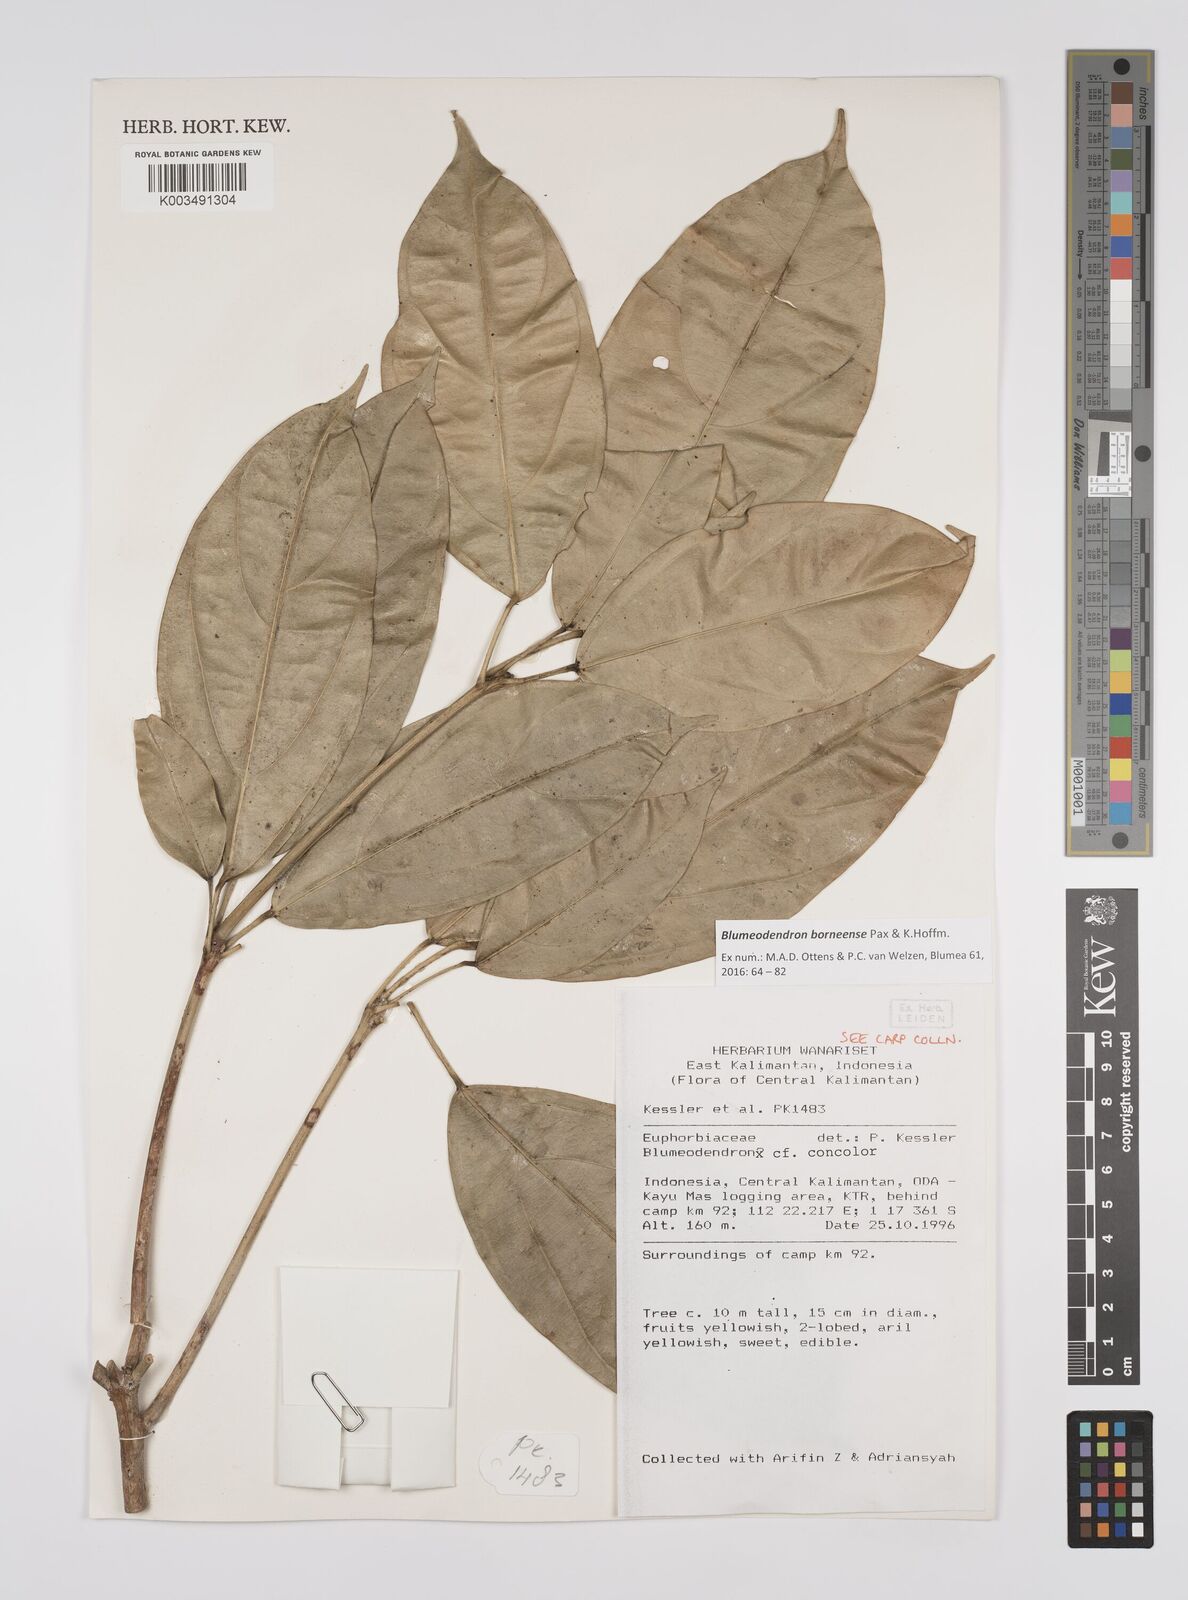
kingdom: Plantae
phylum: Tracheophyta
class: Magnoliopsida
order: Malpighiales
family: Euphorbiaceae
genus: Blumeodendron
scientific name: Blumeodendron borneense
